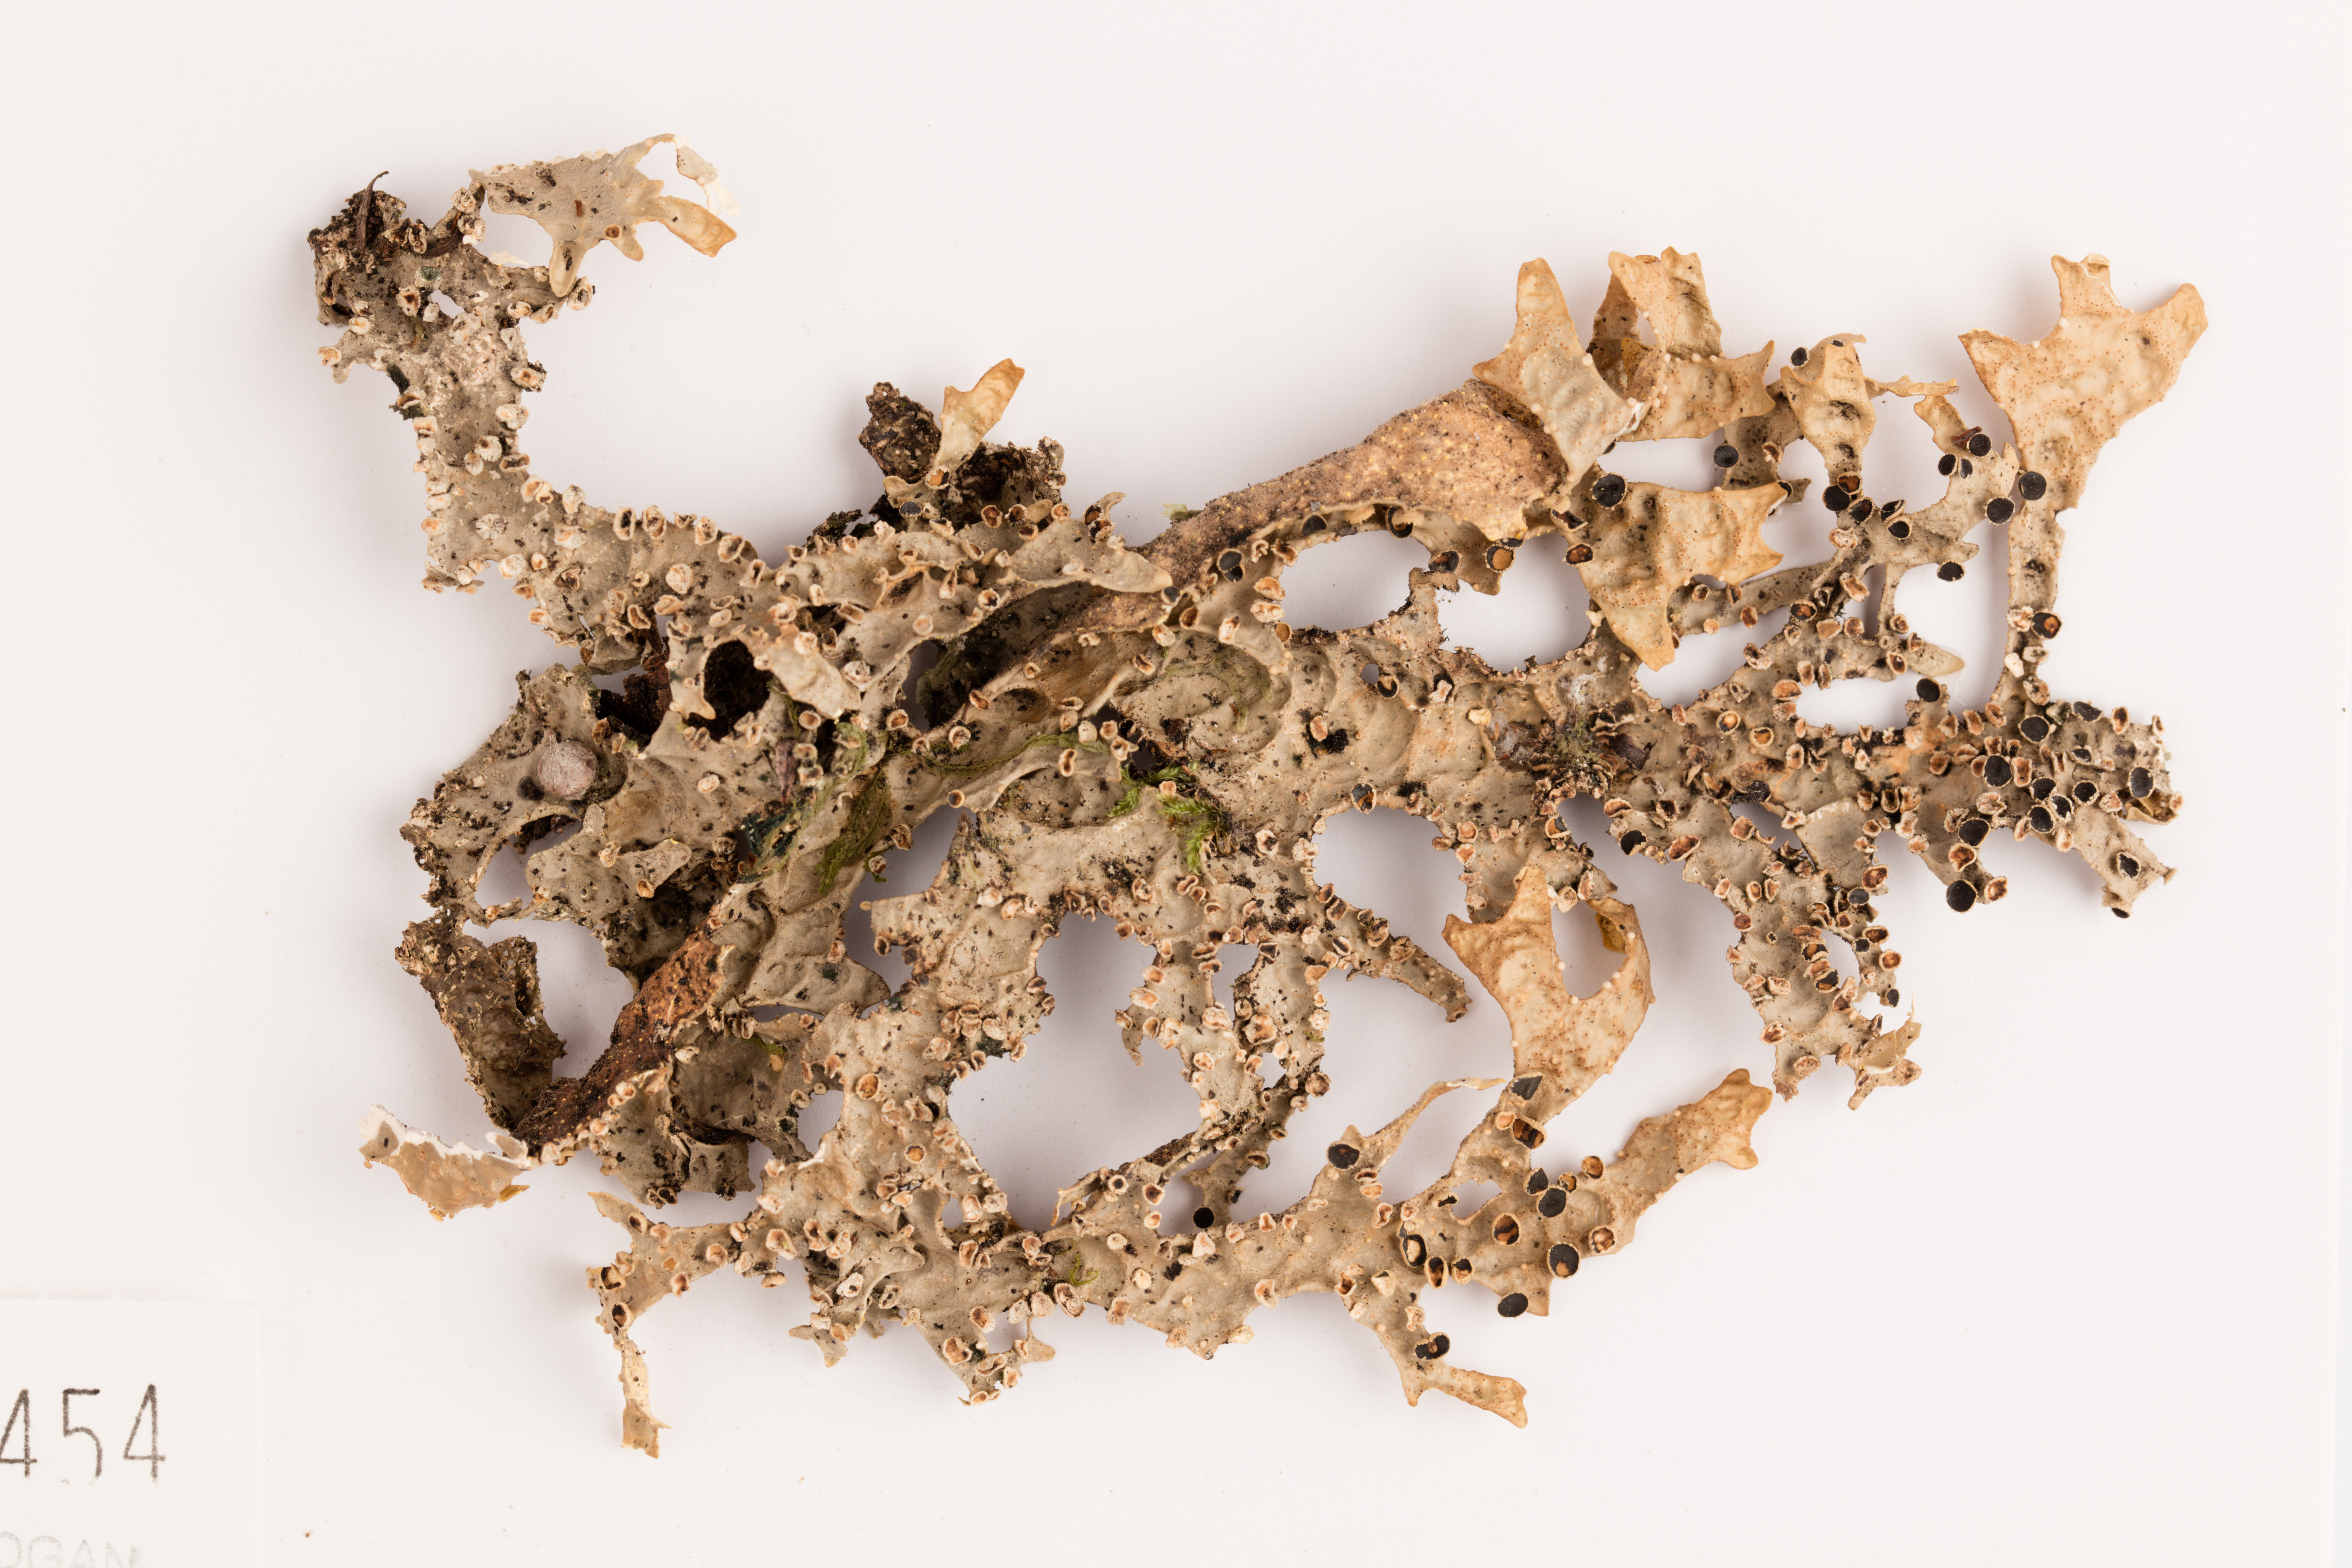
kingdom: Fungi
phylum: Ascomycota
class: Lecanoromycetes
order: Peltigerales
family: Lobariaceae
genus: Pseudocyphellaria
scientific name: Pseudocyphellaria carpoloma
